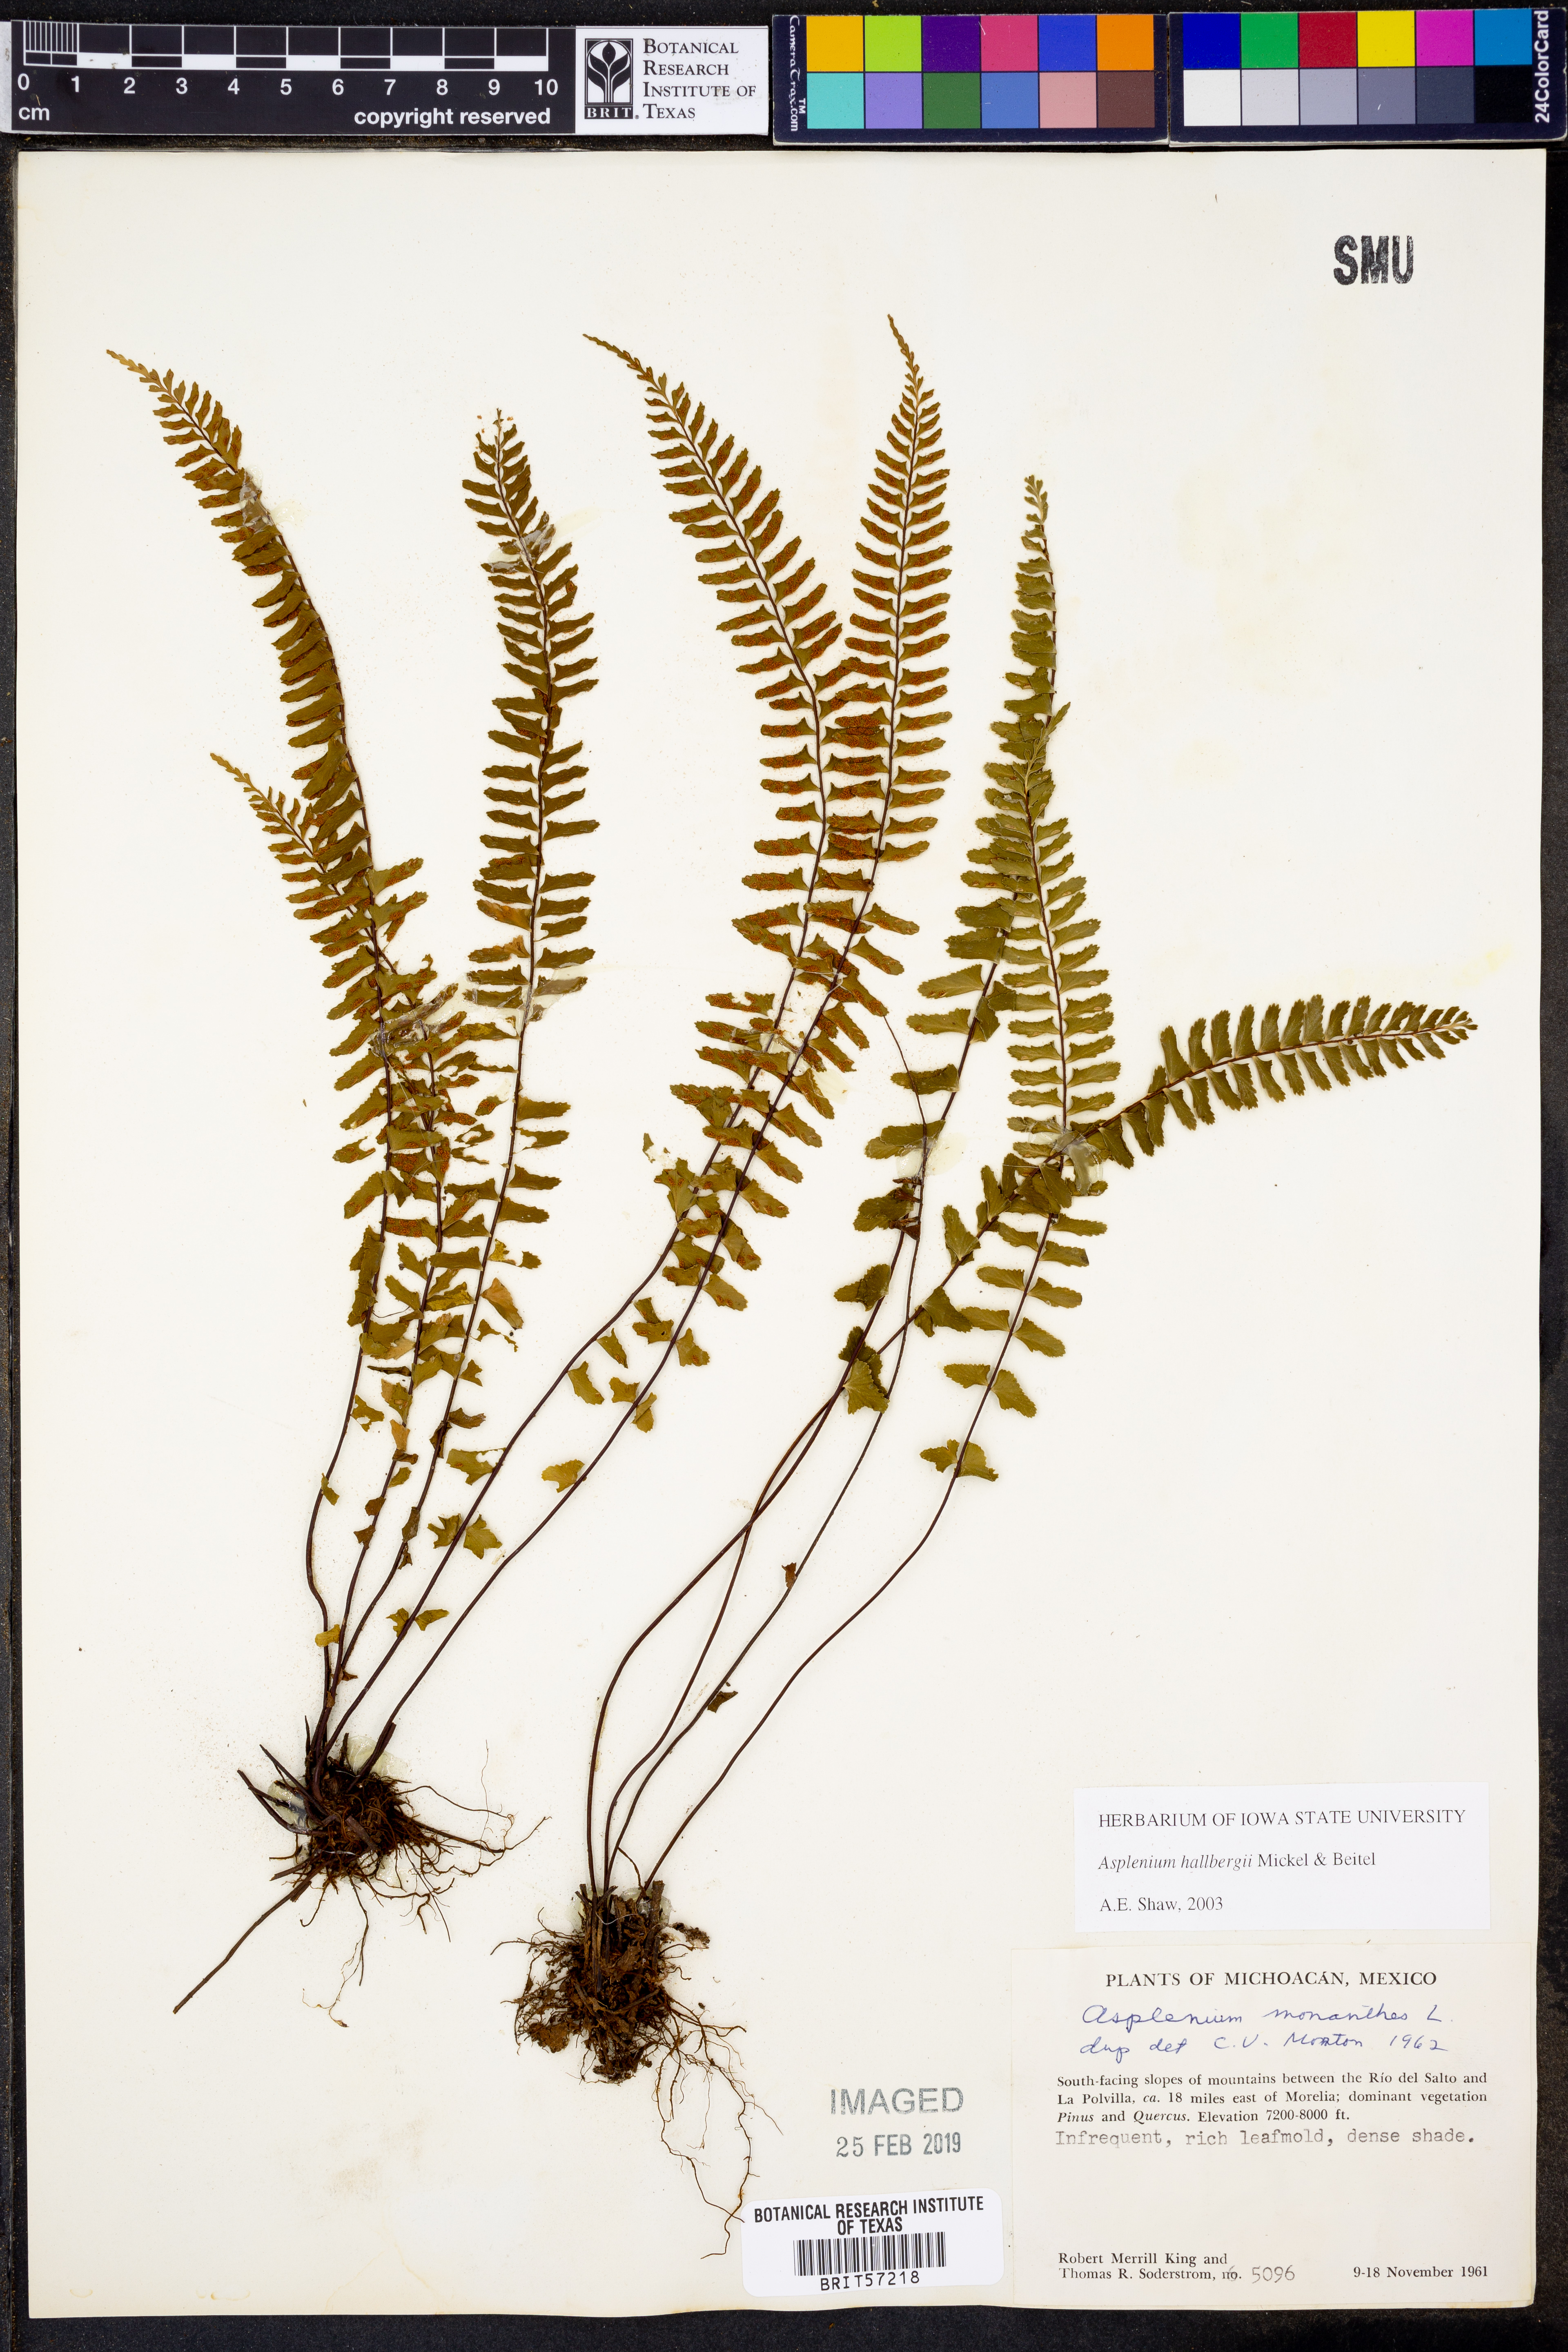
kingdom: Plantae
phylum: Tracheophyta
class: Polypodiopsida
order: Polypodiales
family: Aspleniaceae
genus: Asplenium
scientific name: Asplenium hallbergii
